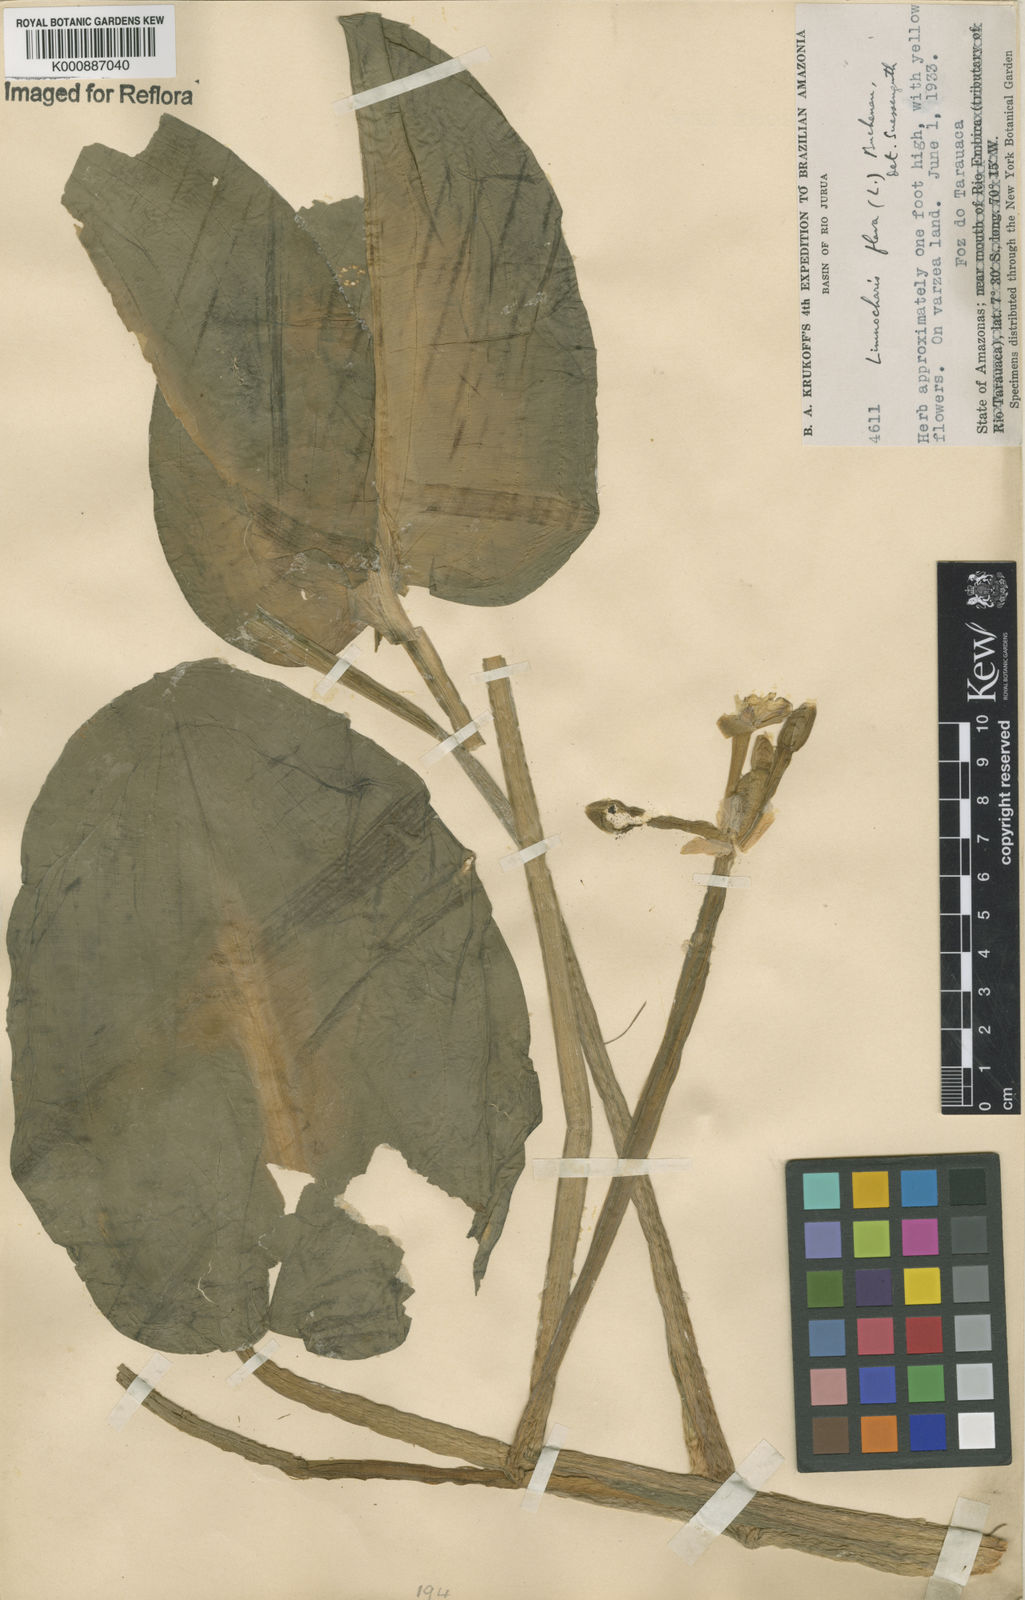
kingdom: Plantae
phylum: Tracheophyta
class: Liliopsida
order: Alismatales
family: Alismataceae
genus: Limnocharis
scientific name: Limnocharis flava
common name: Sawah-flower-rush
